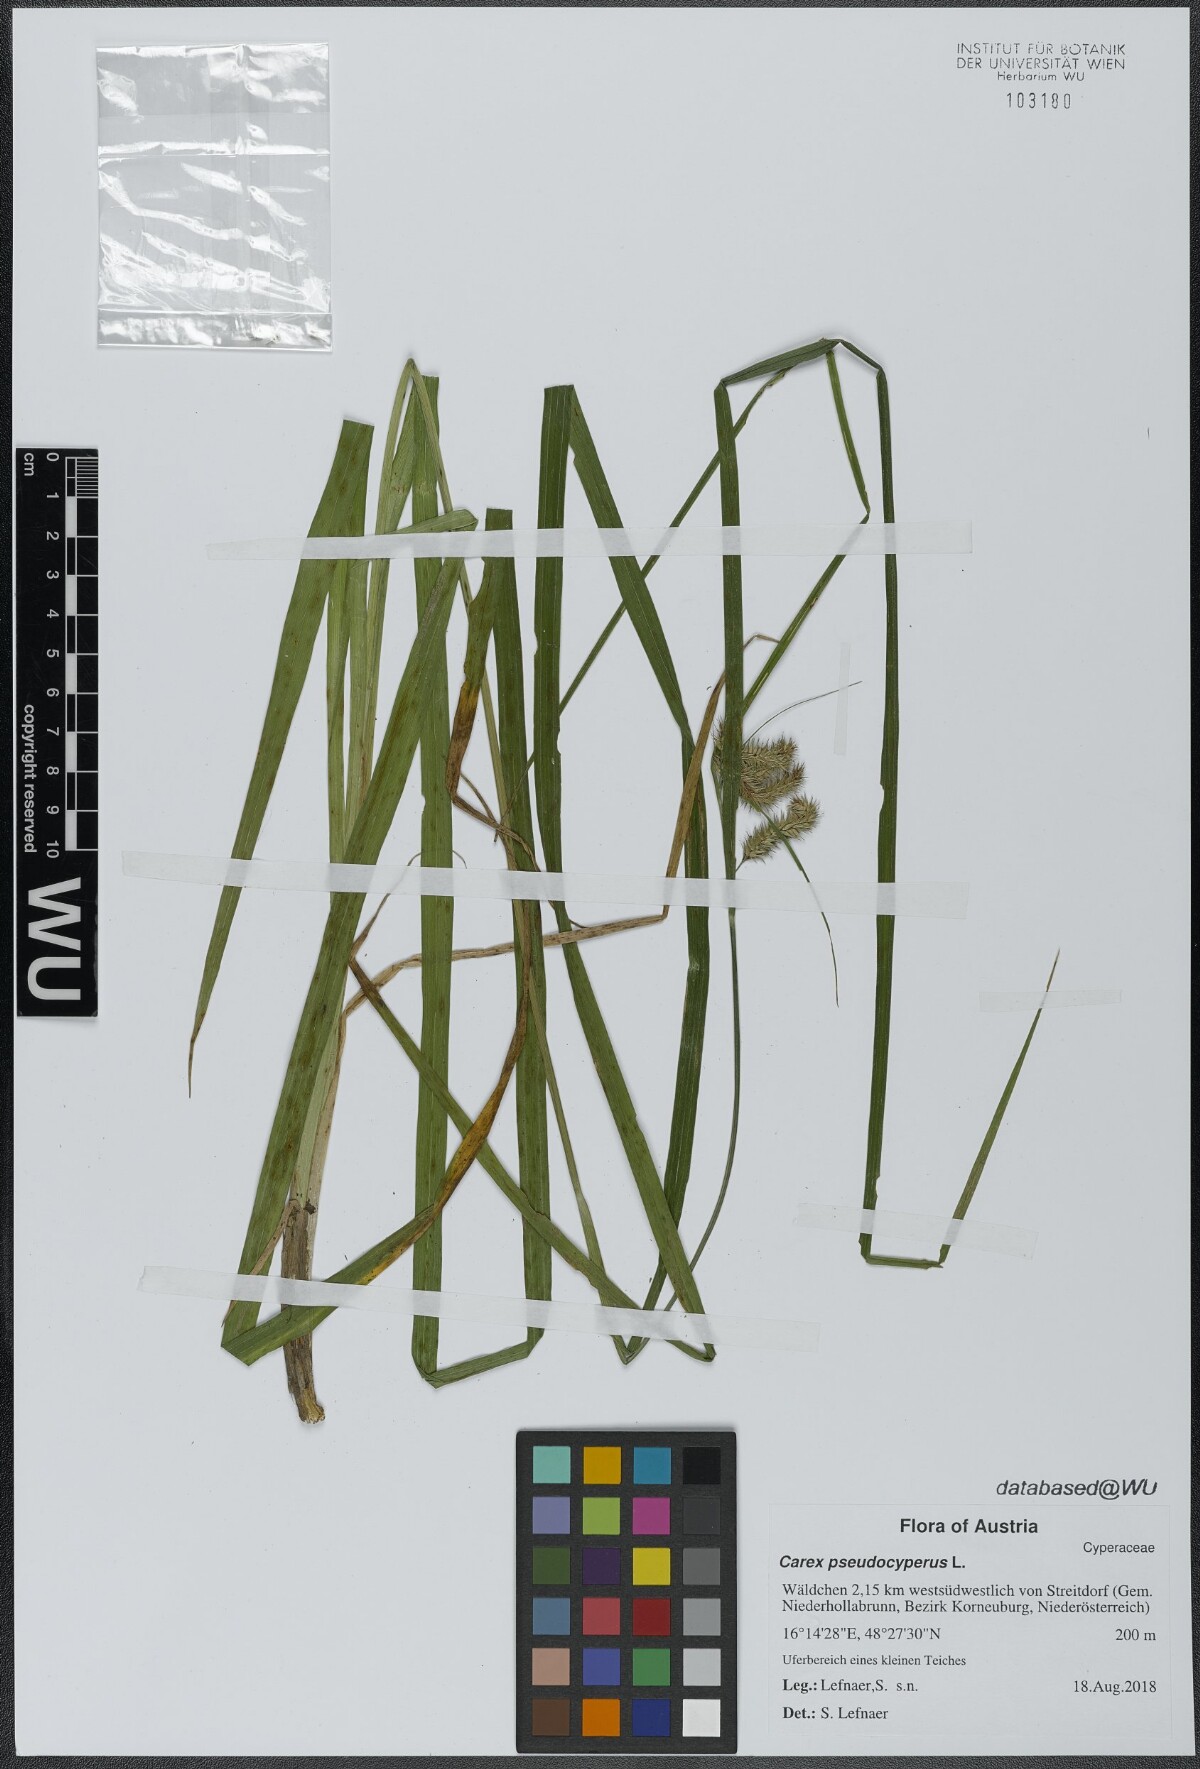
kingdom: Plantae
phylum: Tracheophyta
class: Liliopsida
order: Poales
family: Cyperaceae
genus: Carex
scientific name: Carex pseudocyperus
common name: Cyperus sedge
